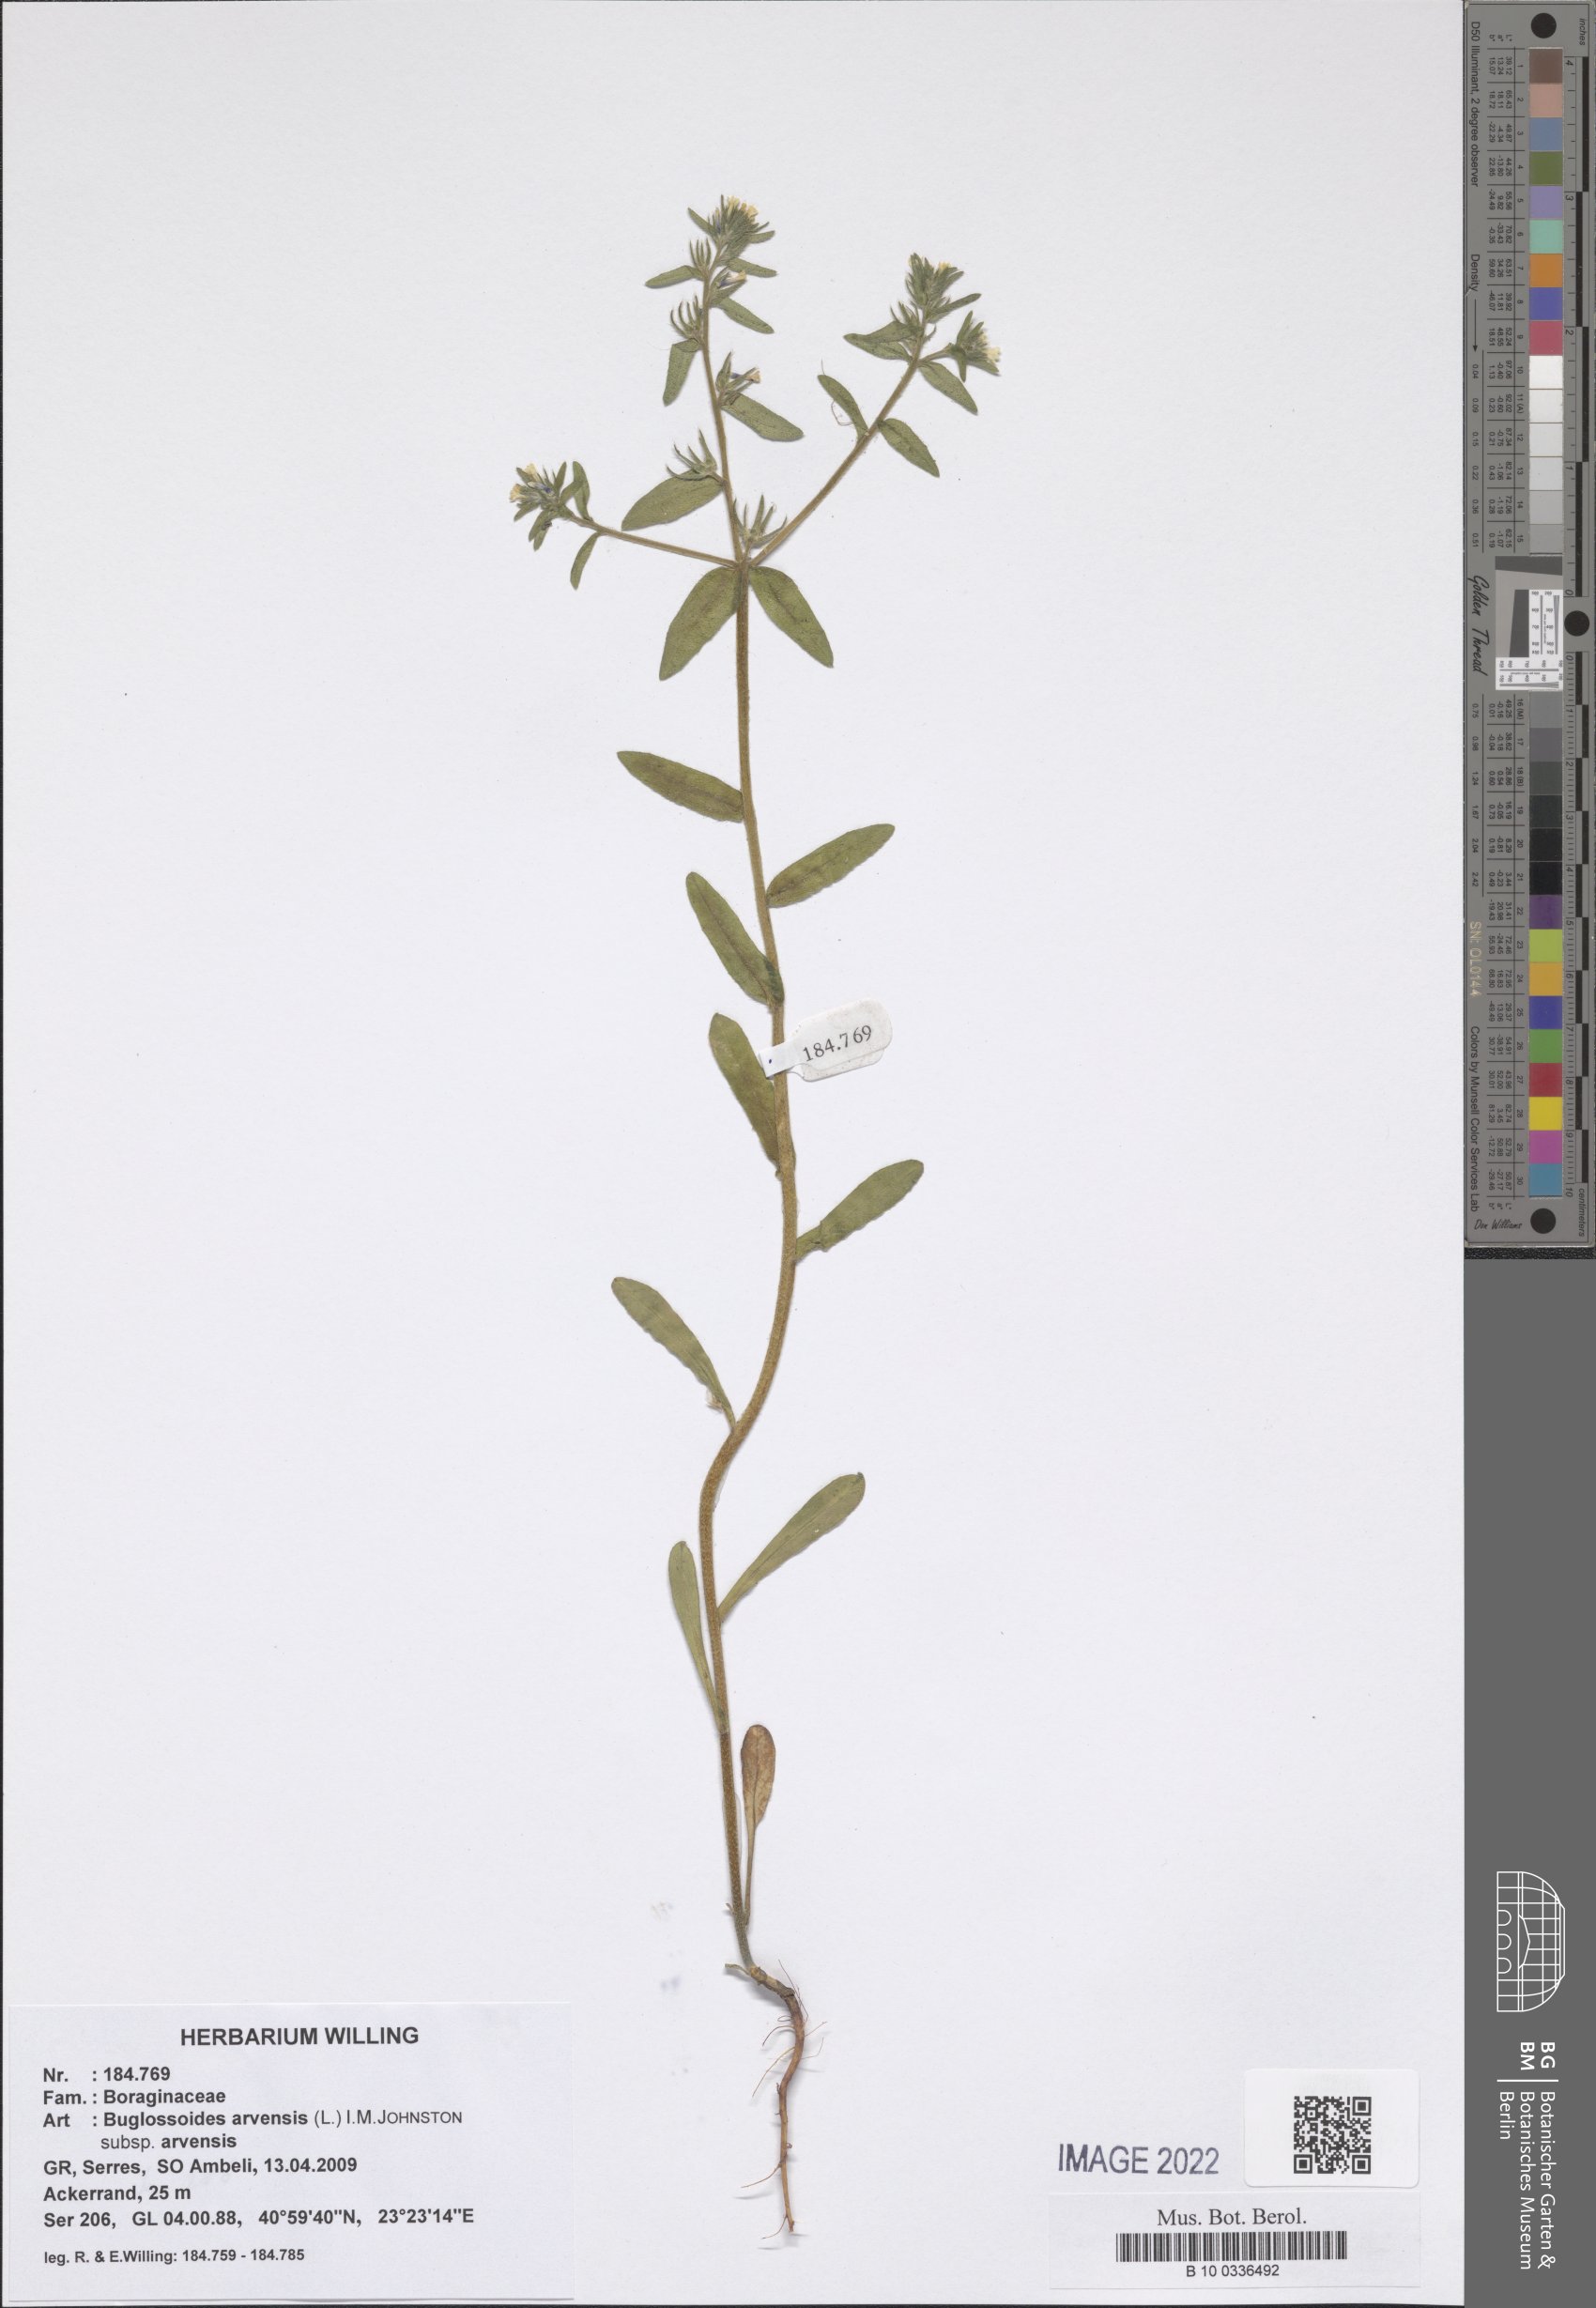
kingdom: Plantae
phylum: Tracheophyta
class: Magnoliopsida
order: Boraginales
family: Boraginaceae
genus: Buglossoides
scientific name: Buglossoides arvensis
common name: Corn gromwell
